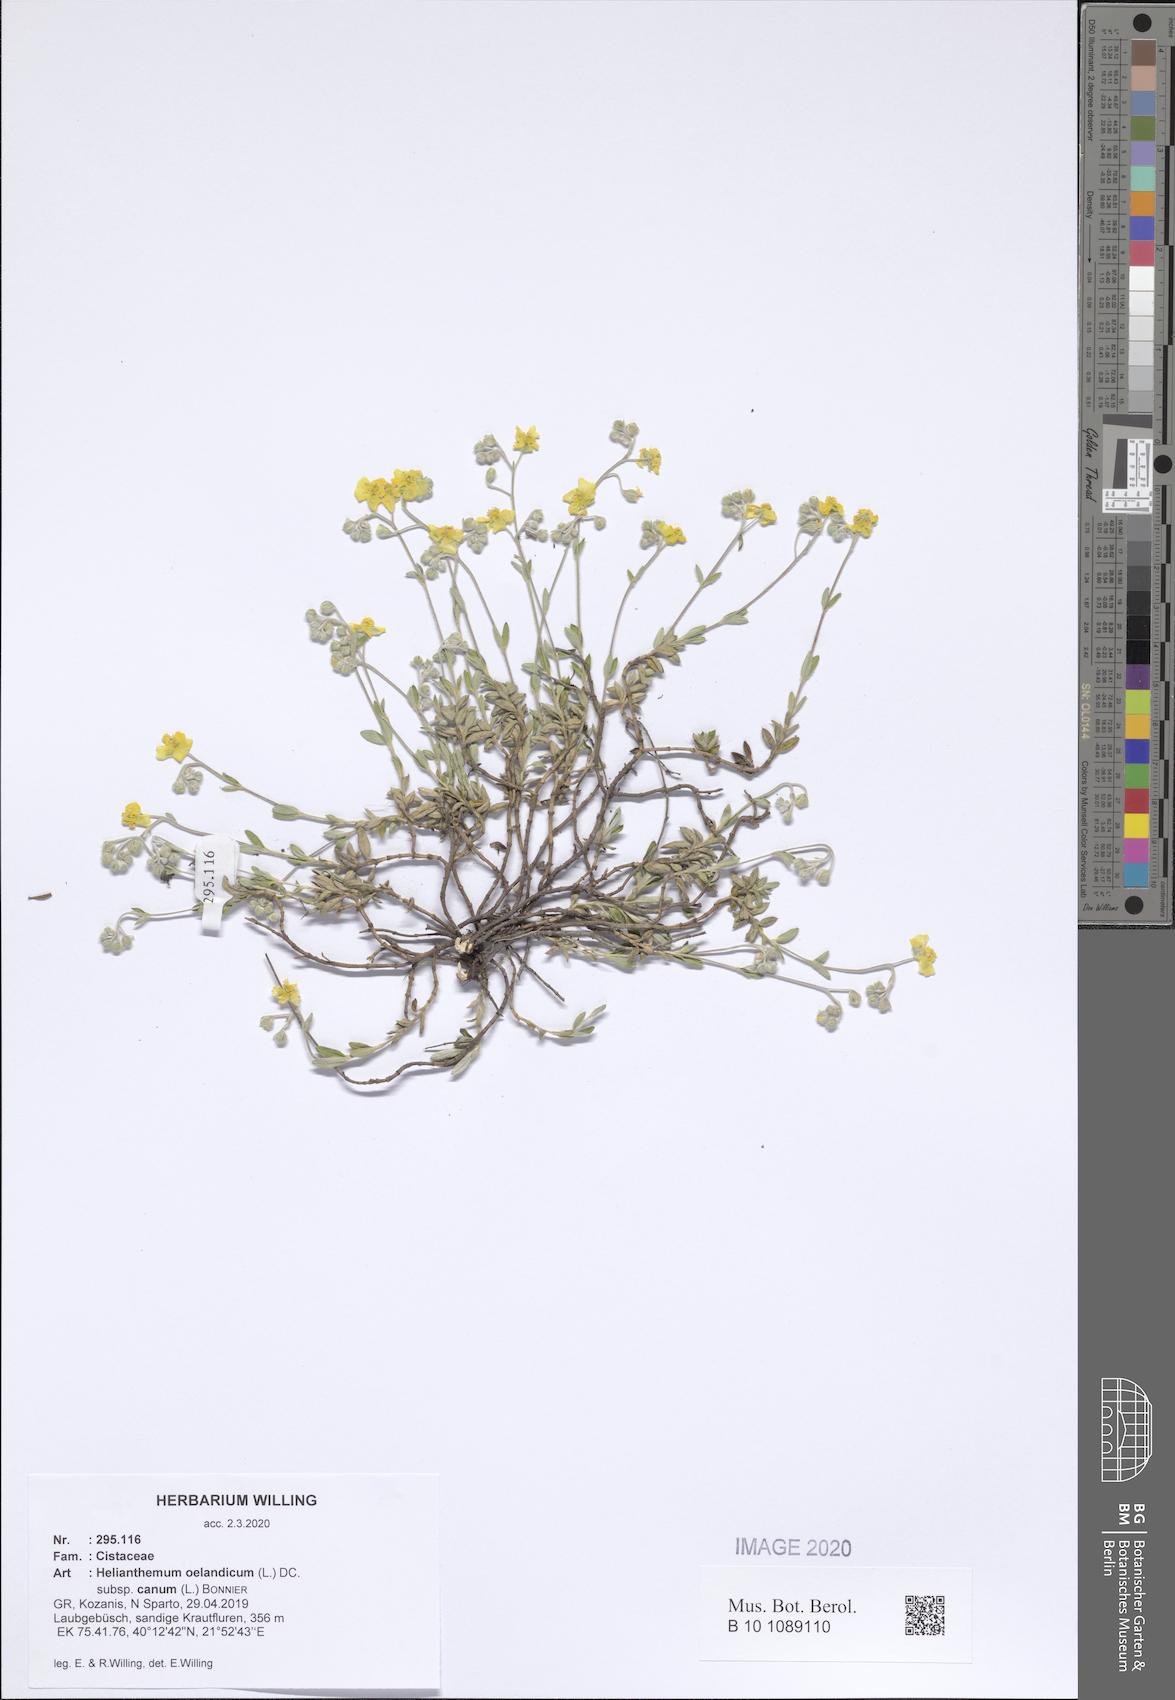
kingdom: Plantae
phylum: Tracheophyta
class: Magnoliopsida
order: Malvales
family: Cistaceae
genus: Helianthemum
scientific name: Helianthemum canum
